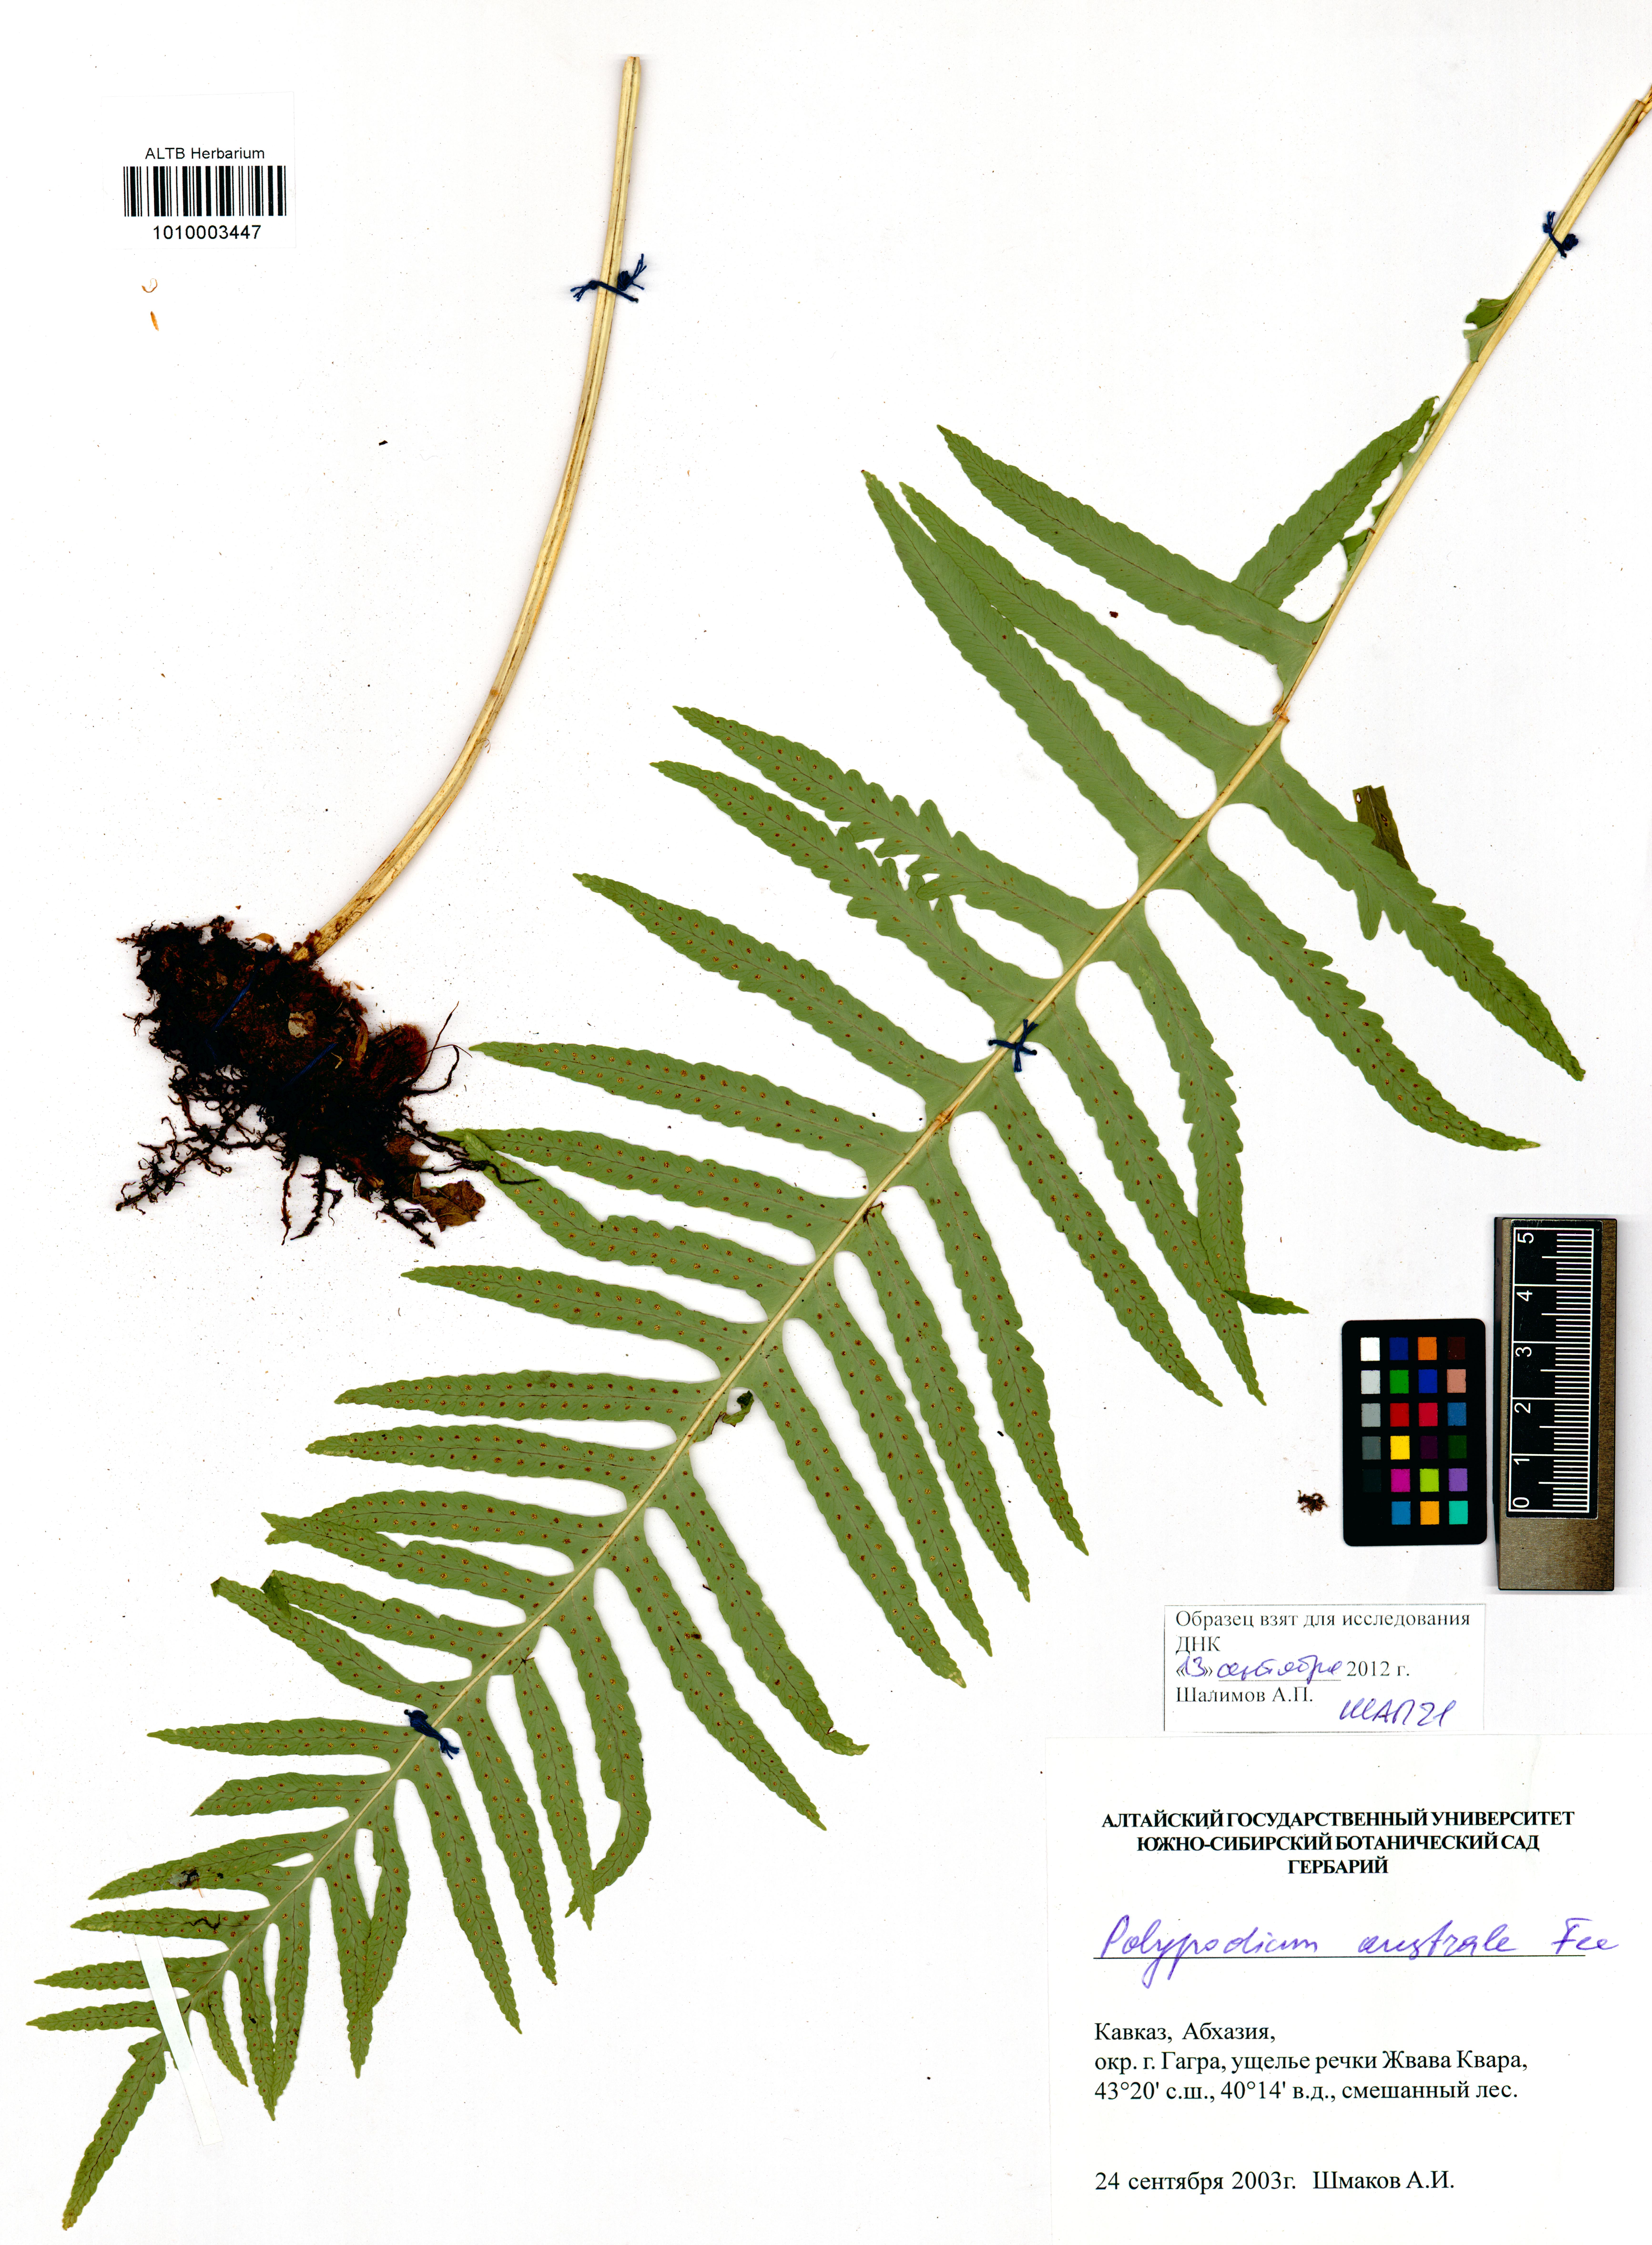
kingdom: Plantae
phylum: Tracheophyta
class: Polypodiopsida
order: Polypodiales
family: Polypodiaceae
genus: Polypodium
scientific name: Polypodium cambricum
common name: Southern polypody
